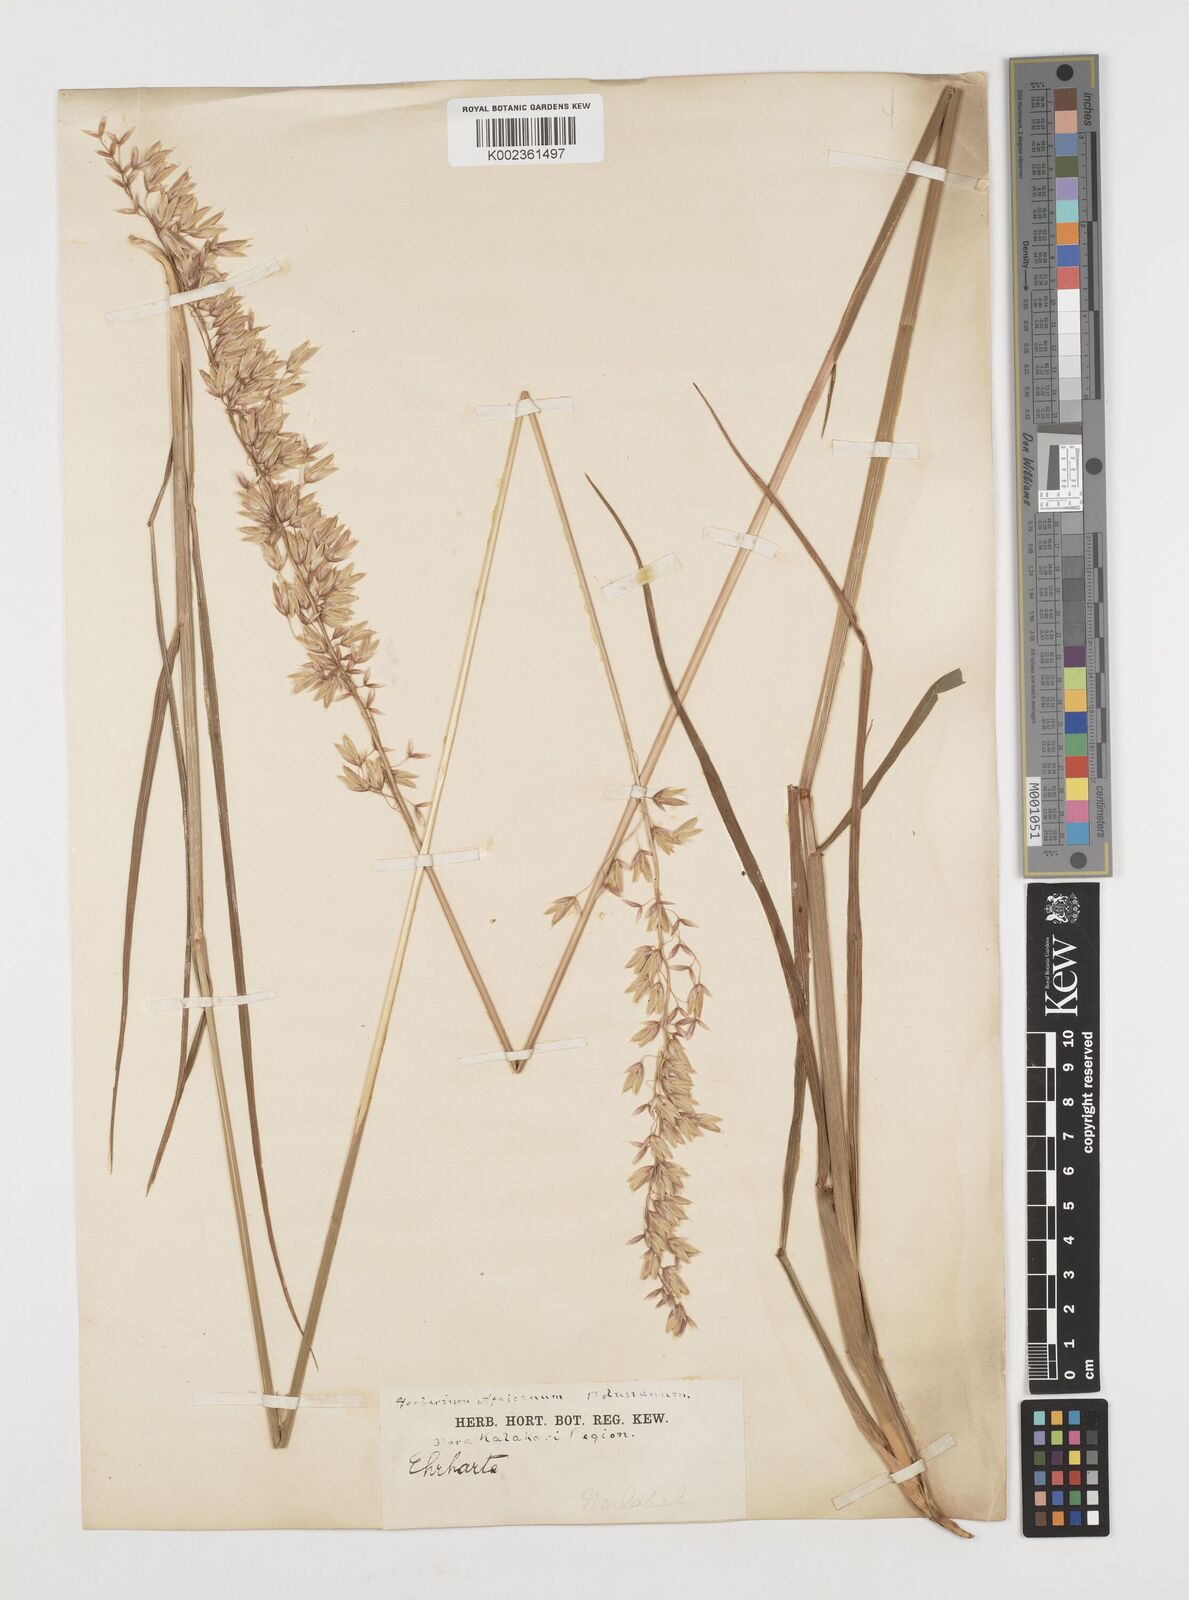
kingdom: Plantae
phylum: Tracheophyta
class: Liliopsida
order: Poales
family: Poaceae
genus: Ehrharta
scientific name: Ehrharta bulbosa
